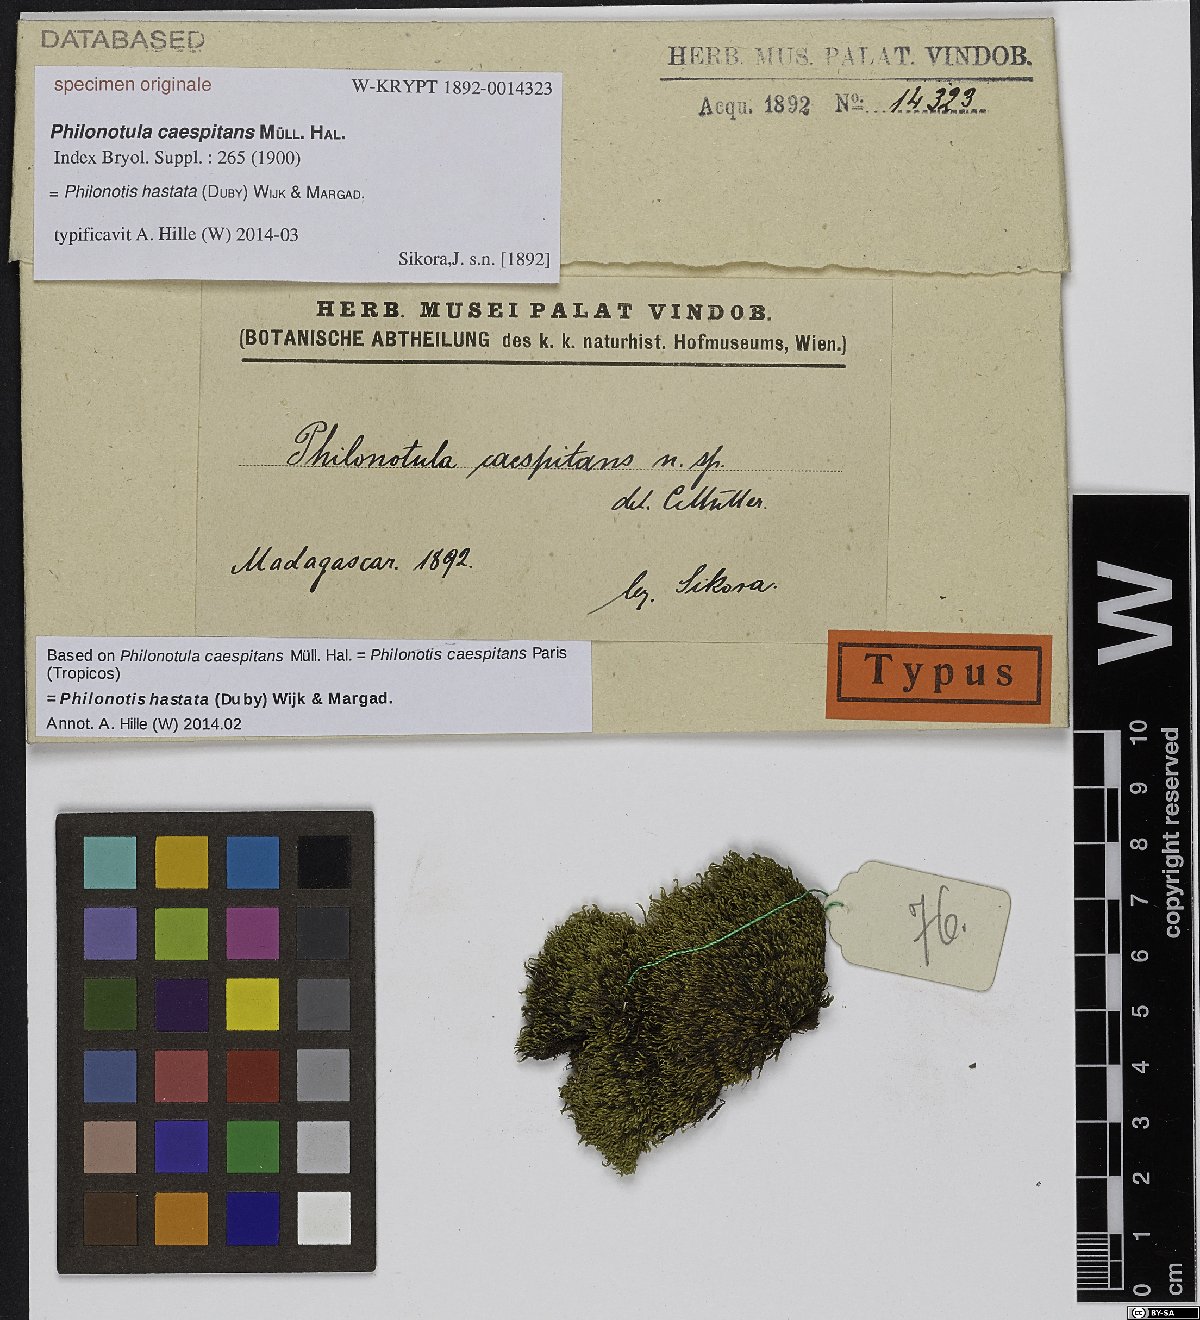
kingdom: Plantae
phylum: Bryophyta
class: Bryopsida
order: Bartramiales
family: Bartramiaceae
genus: Philonotis
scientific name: Philonotis
